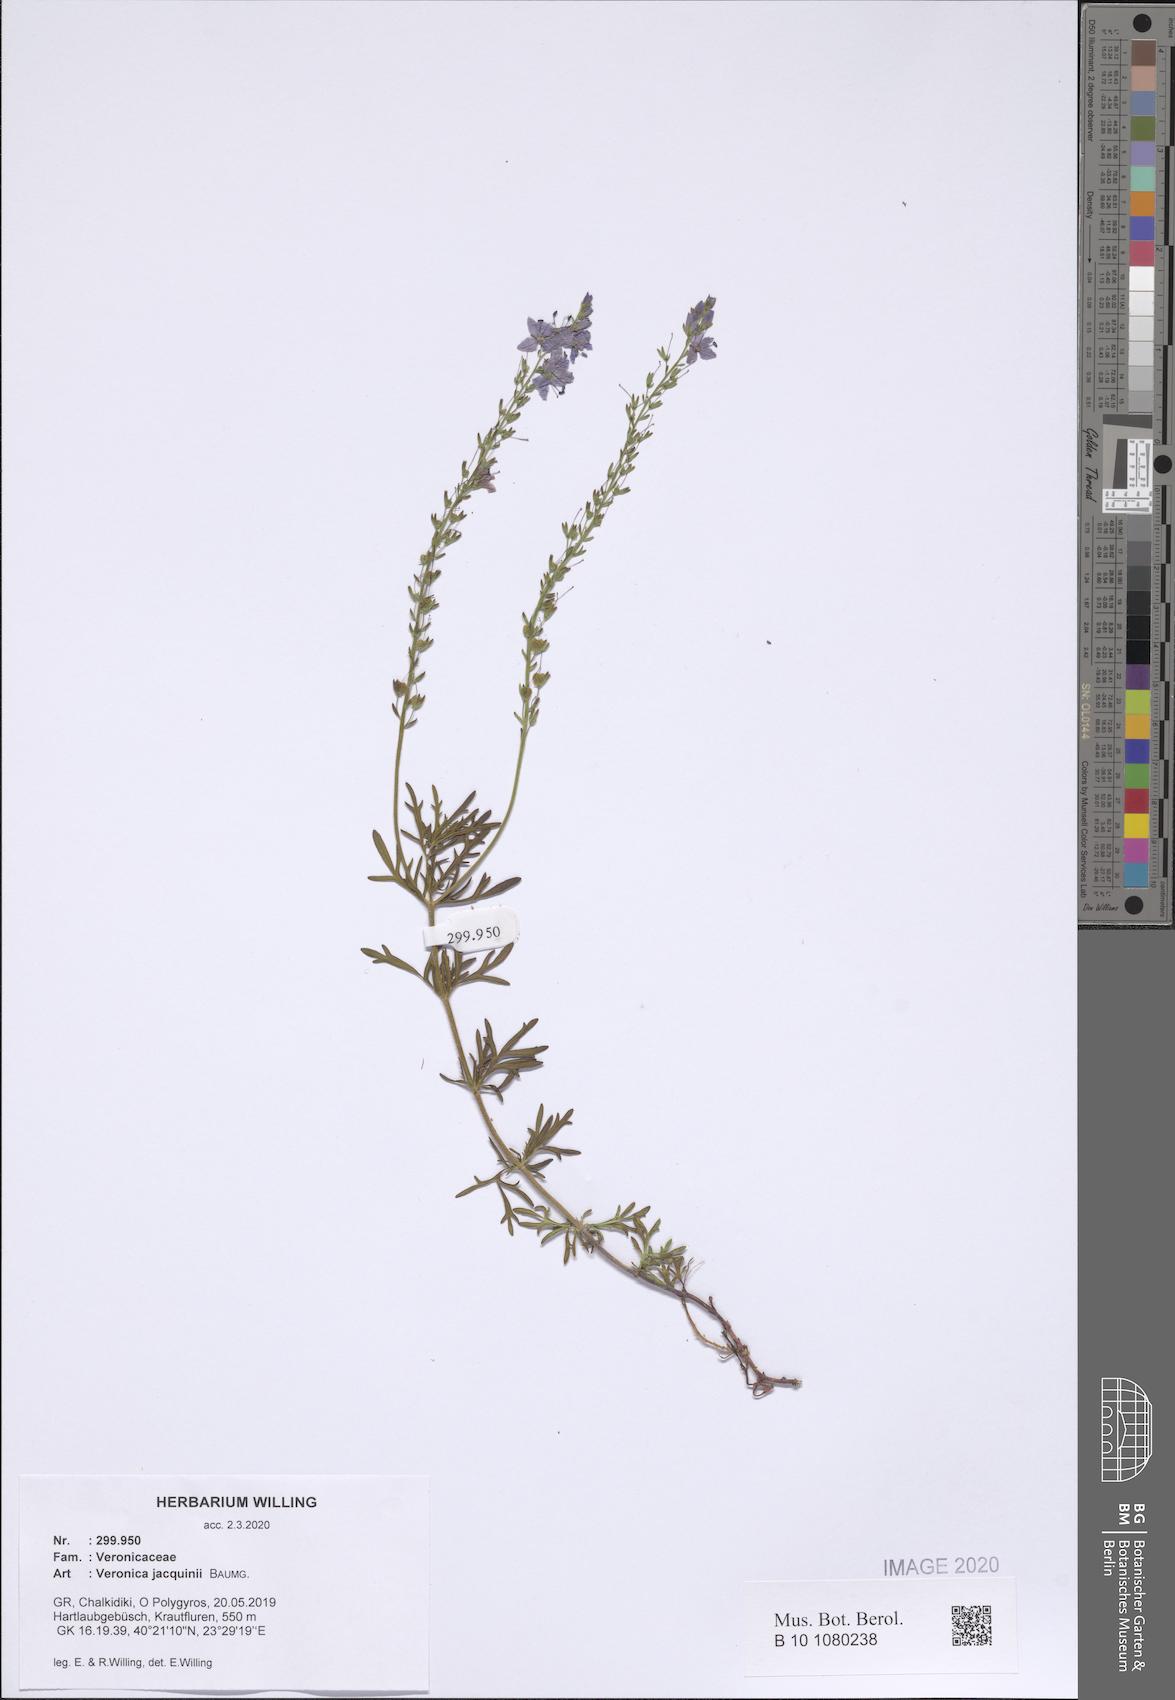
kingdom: Plantae
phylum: Tracheophyta
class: Magnoliopsida
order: Lamiales
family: Plantaginaceae
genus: Veronica
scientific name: Veronica austriaca
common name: Large speedwell
